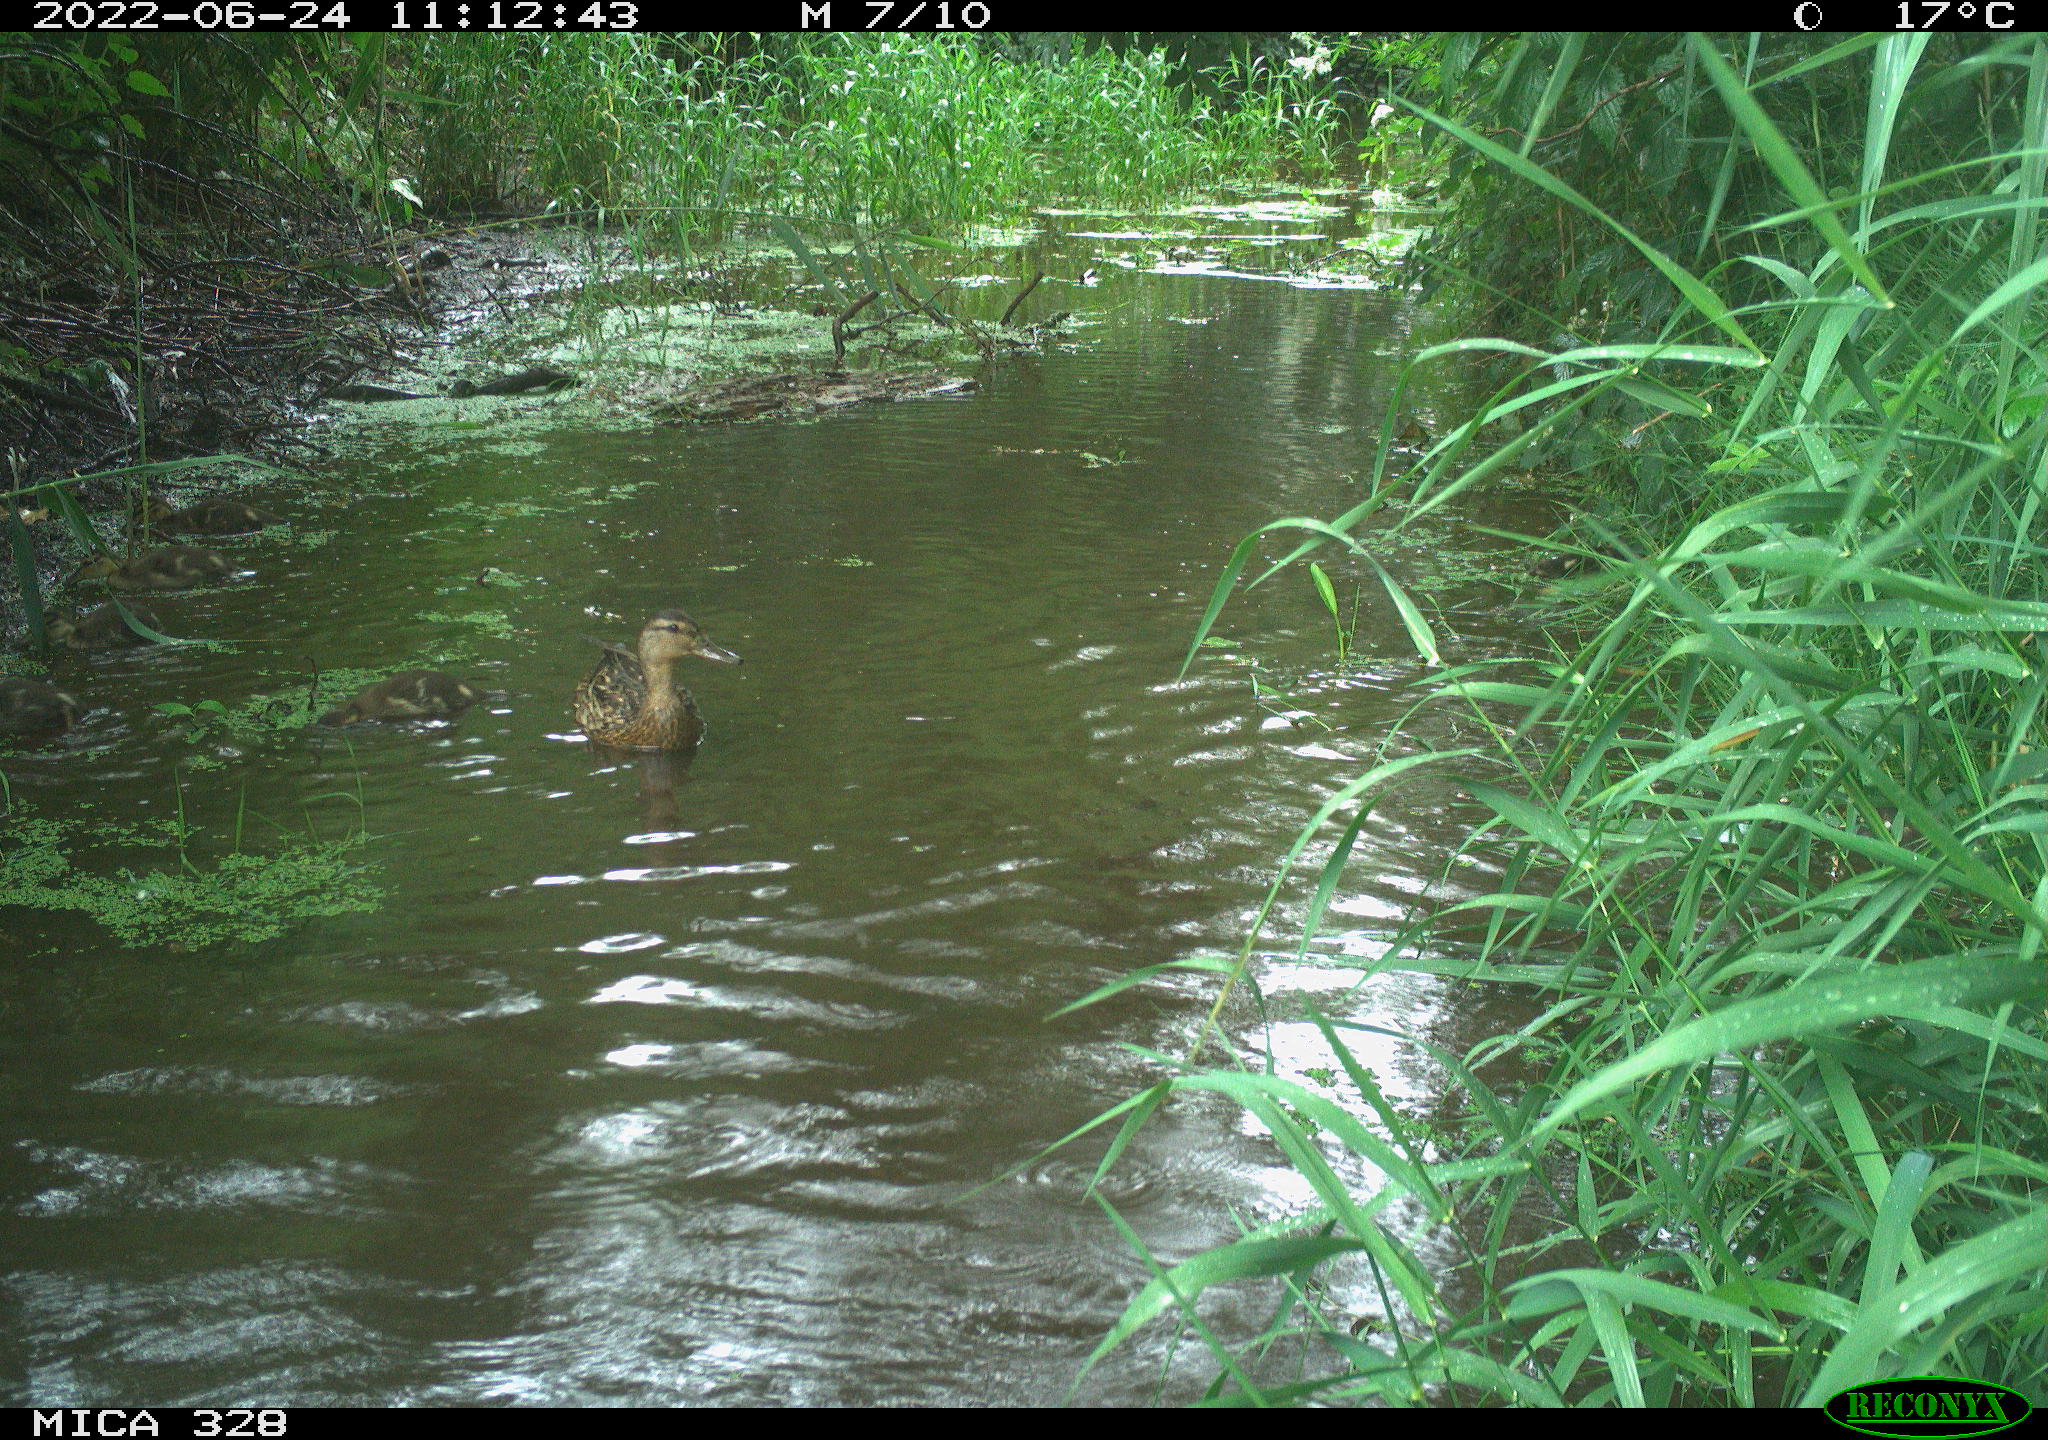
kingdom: Animalia
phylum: Chordata
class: Aves
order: Anseriformes
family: Anatidae
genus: Anas
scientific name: Anas
